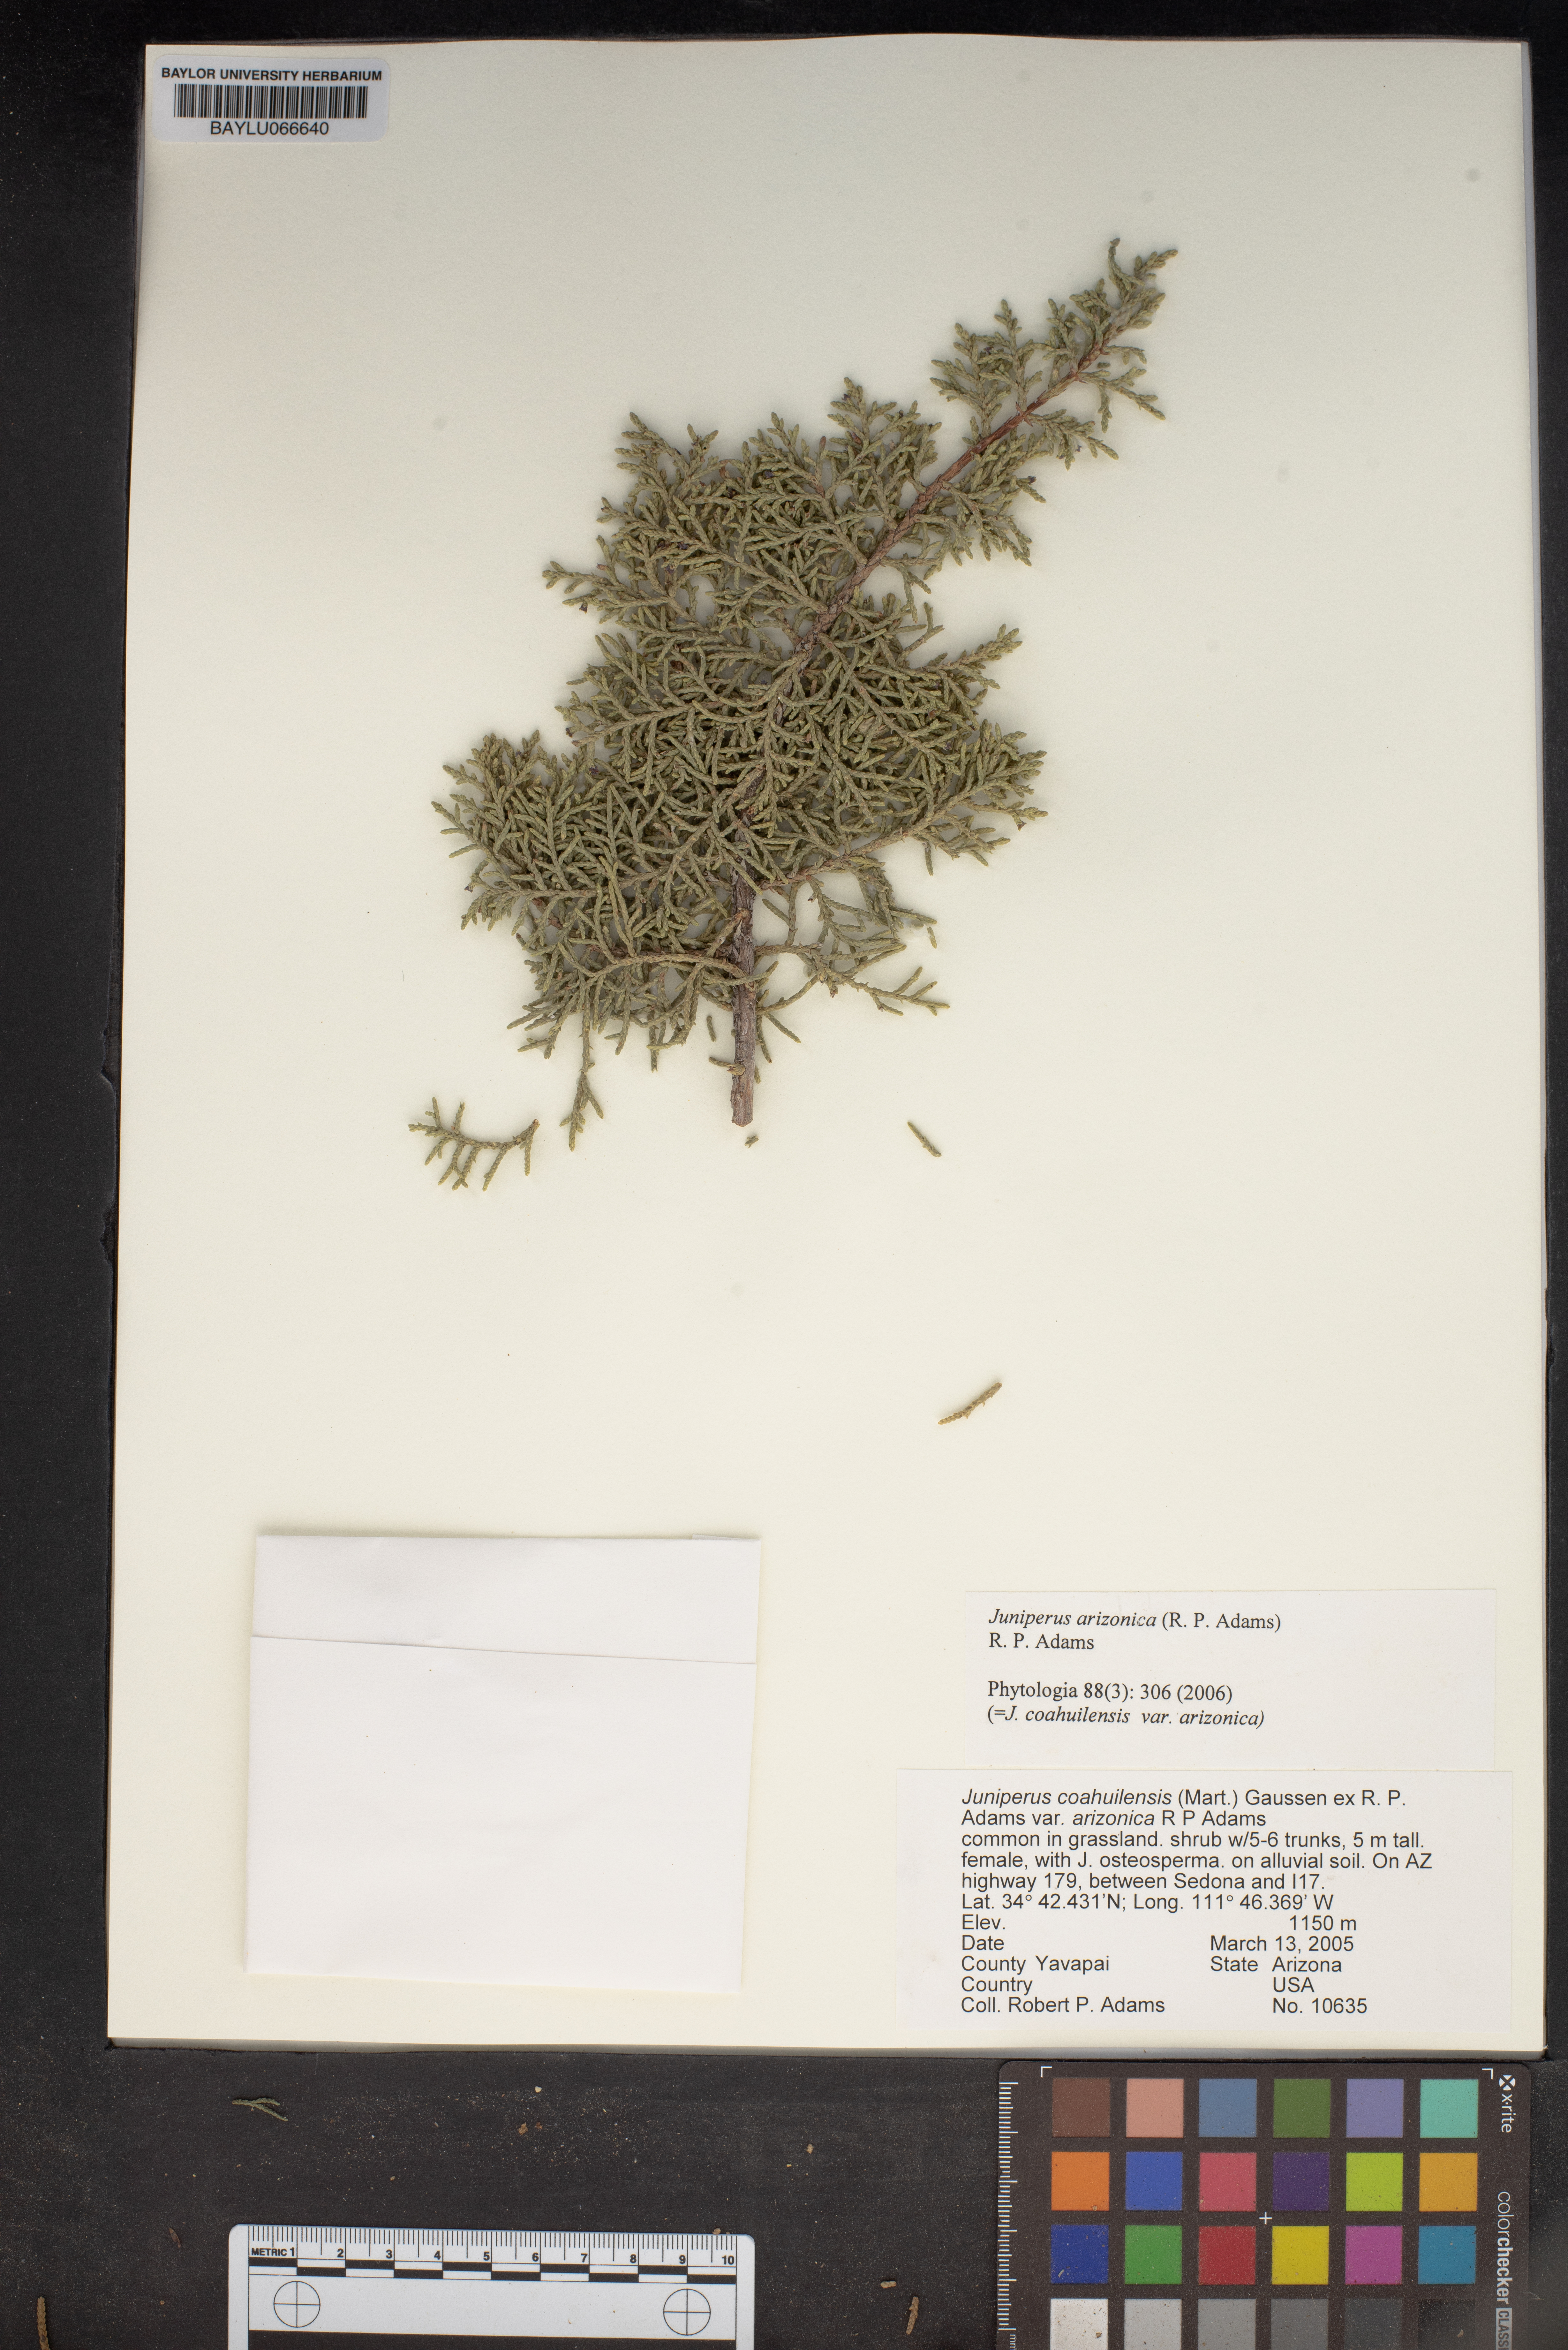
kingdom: Plantae
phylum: Tracheophyta
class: Pinopsida
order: Pinales
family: Cupressaceae
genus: Juniperus
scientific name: Juniperus arizonica
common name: Arizona juniper
